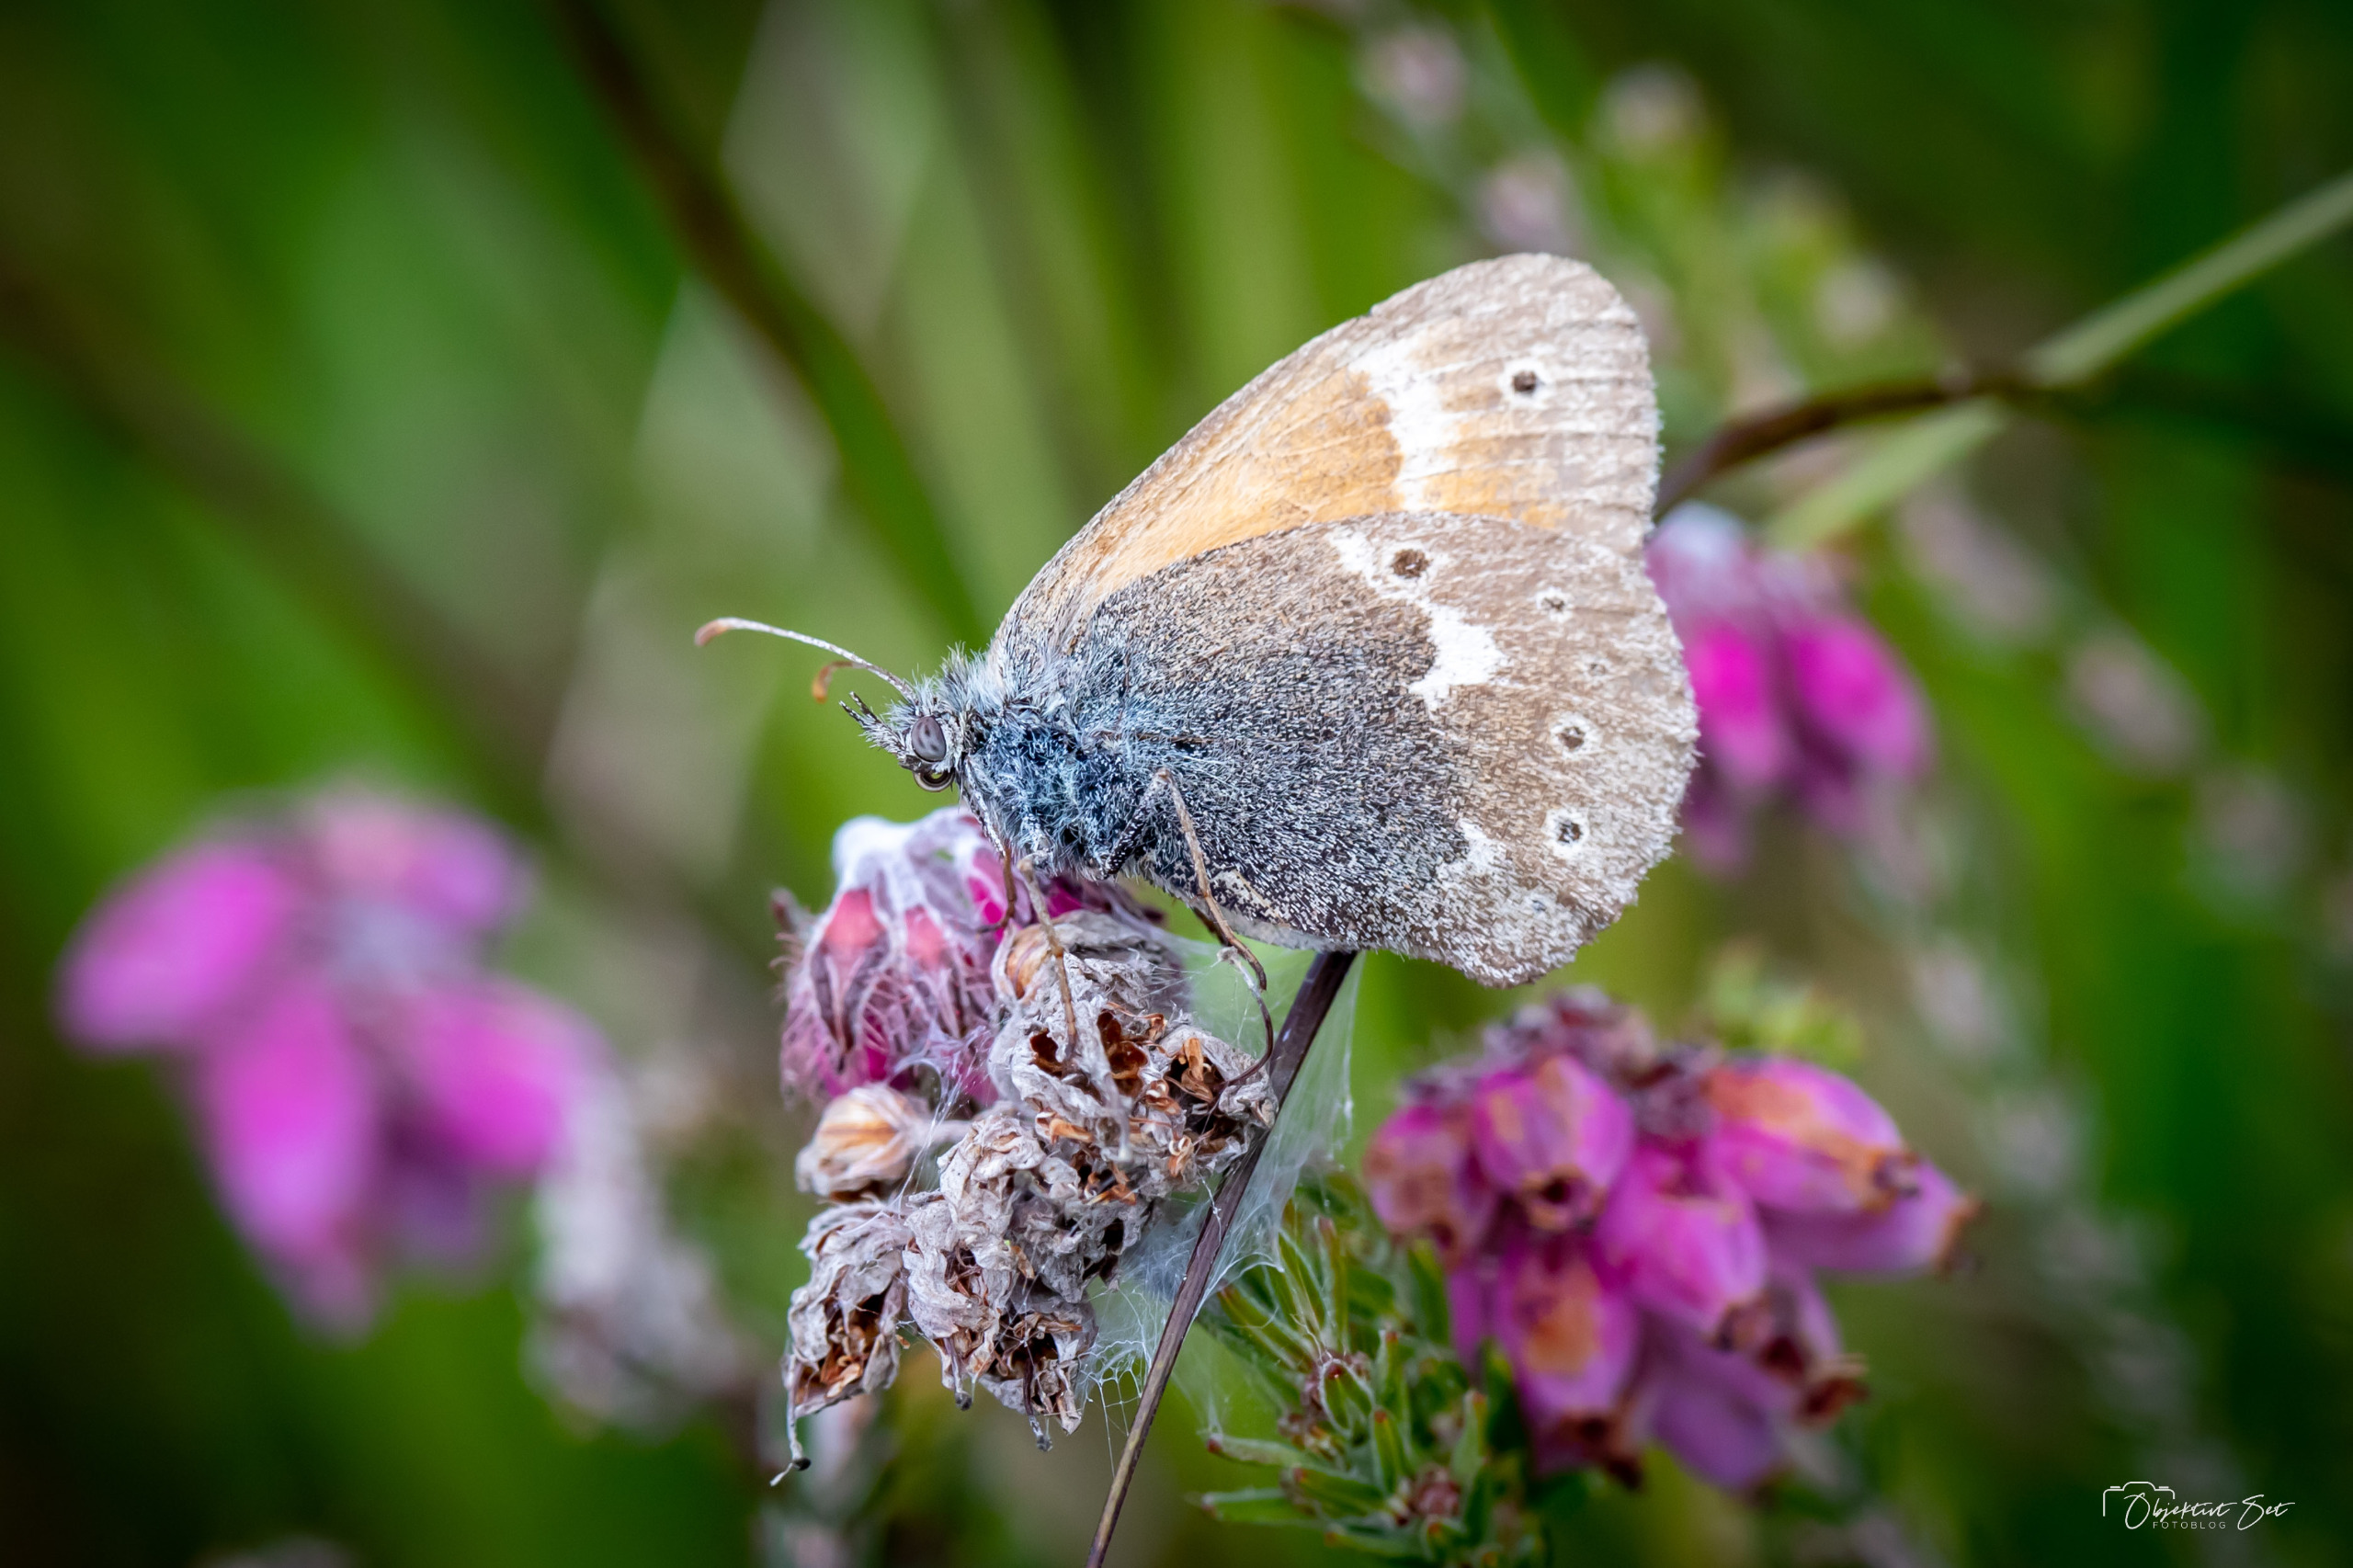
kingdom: Animalia
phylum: Arthropoda
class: Insecta
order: Lepidoptera
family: Nymphalidae
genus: Coenonympha
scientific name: Coenonympha tullia
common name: Moserandøje
